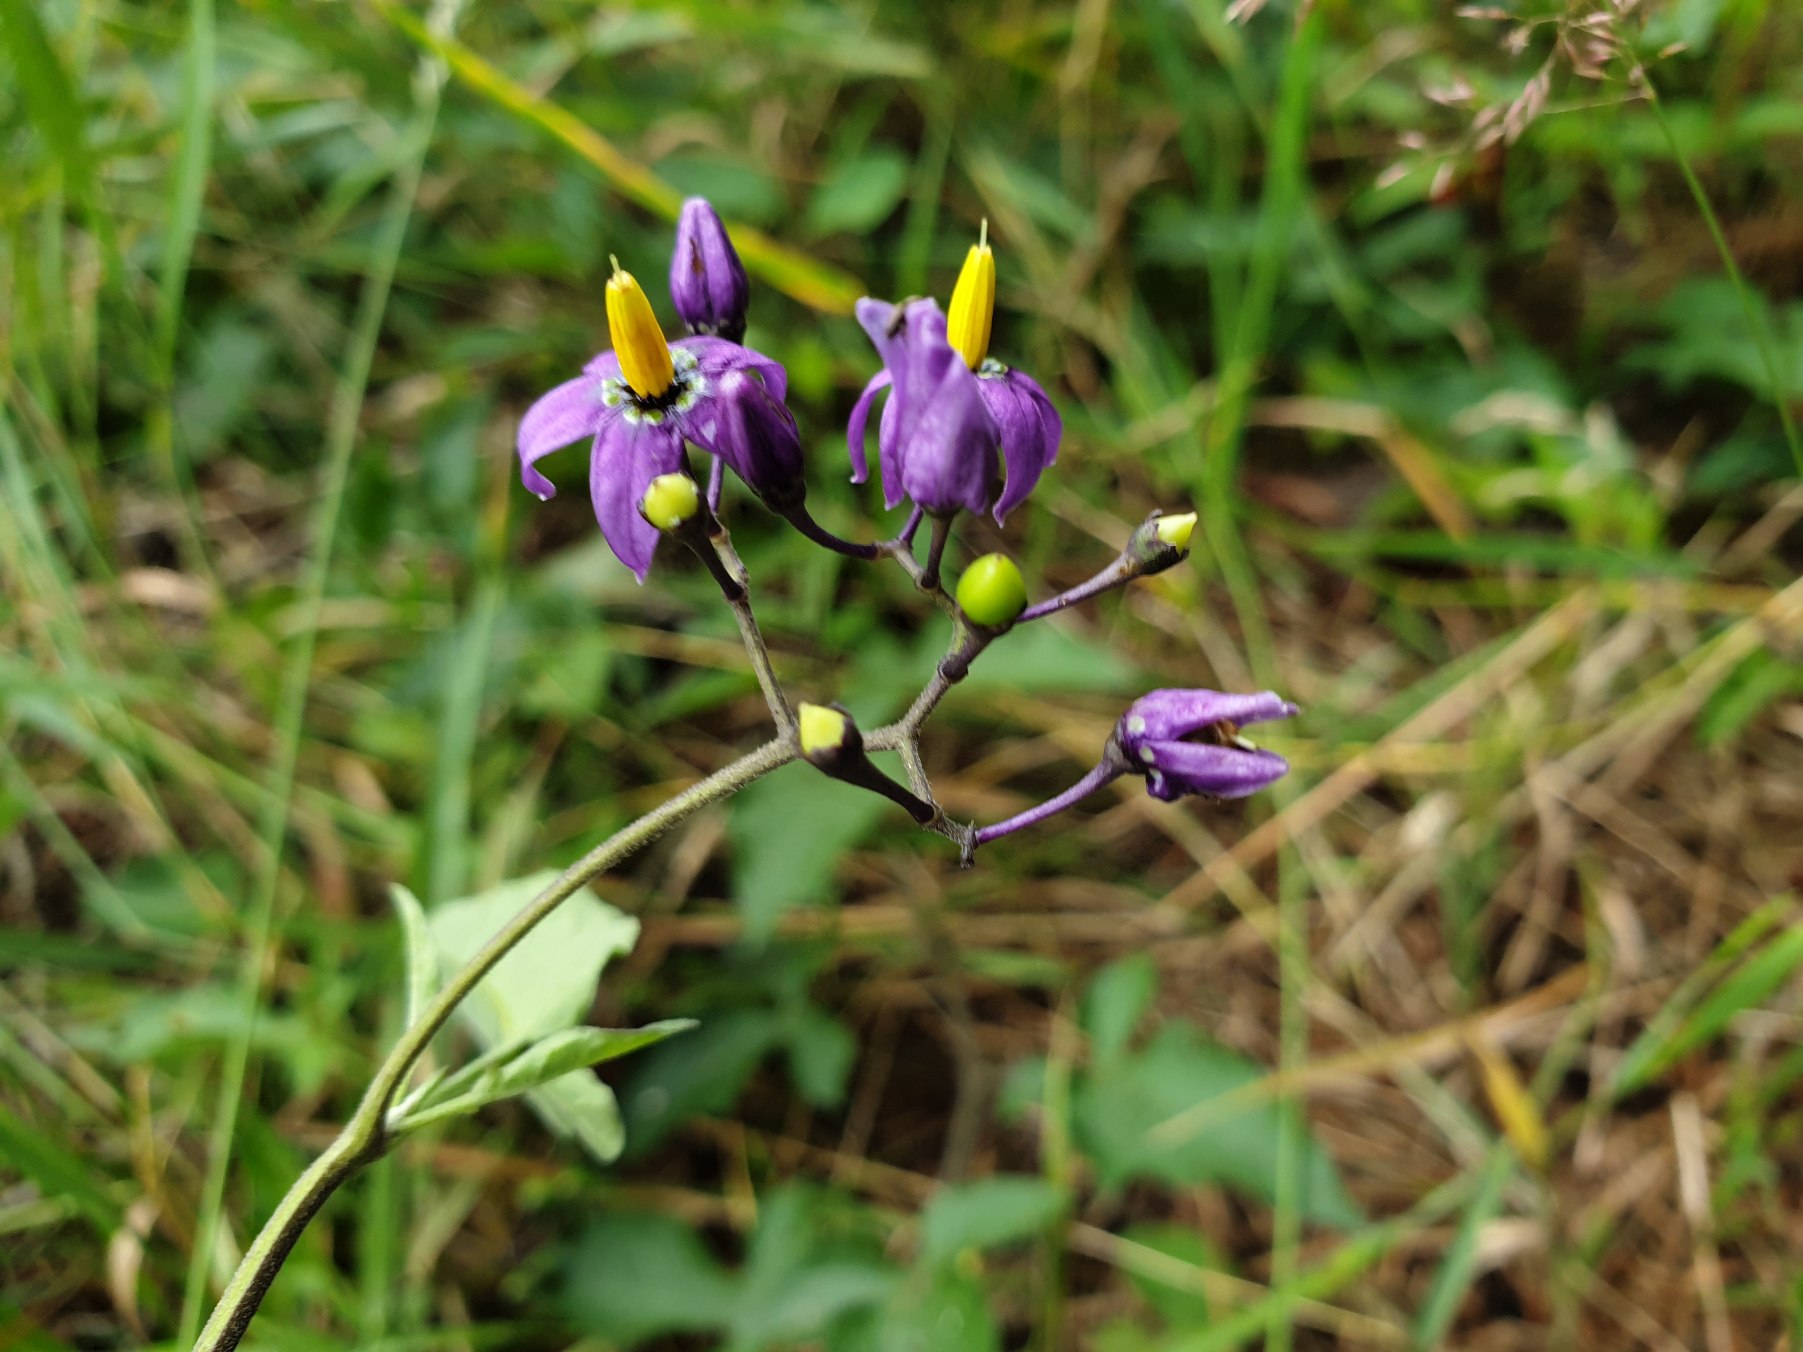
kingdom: Plantae
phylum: Tracheophyta
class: Magnoliopsida
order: Solanales
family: Solanaceae
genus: Solanum
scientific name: Solanum dulcamara
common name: Bittersød natskygge
